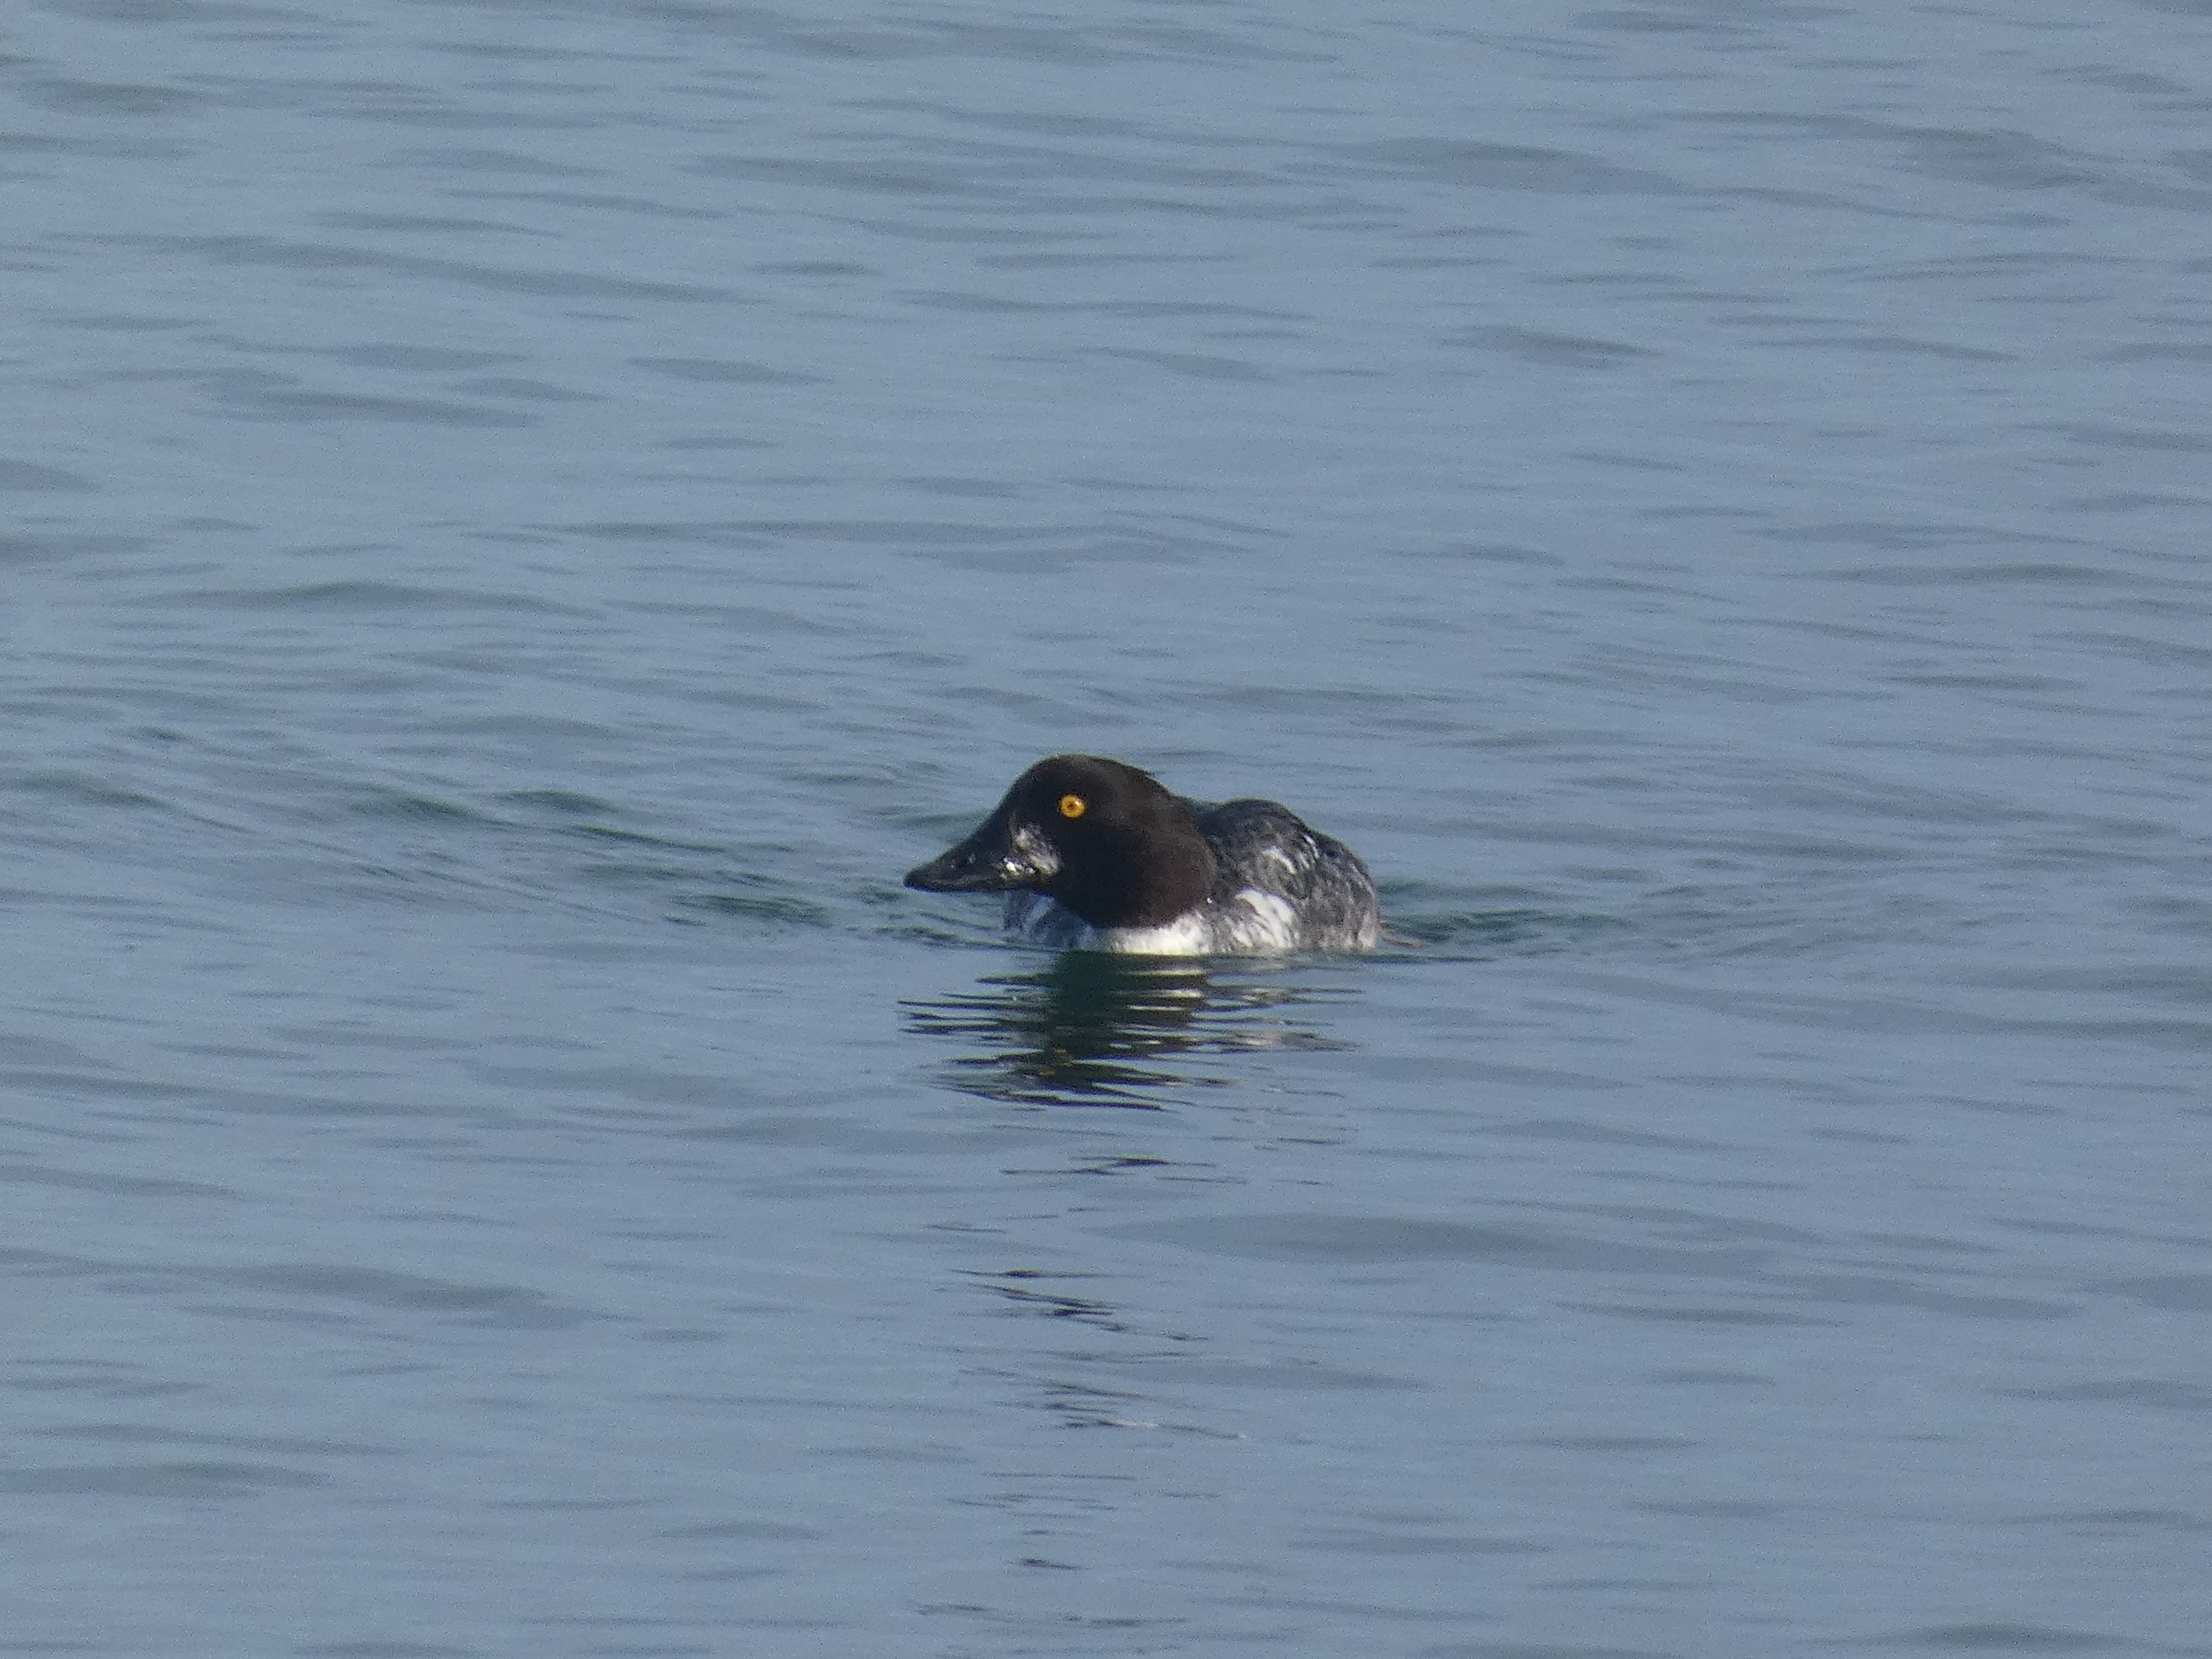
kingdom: Animalia
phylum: Chordata
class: Aves
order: Anseriformes
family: Anatidae
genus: Bucephala
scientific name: Bucephala clangula
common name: Hvinand
